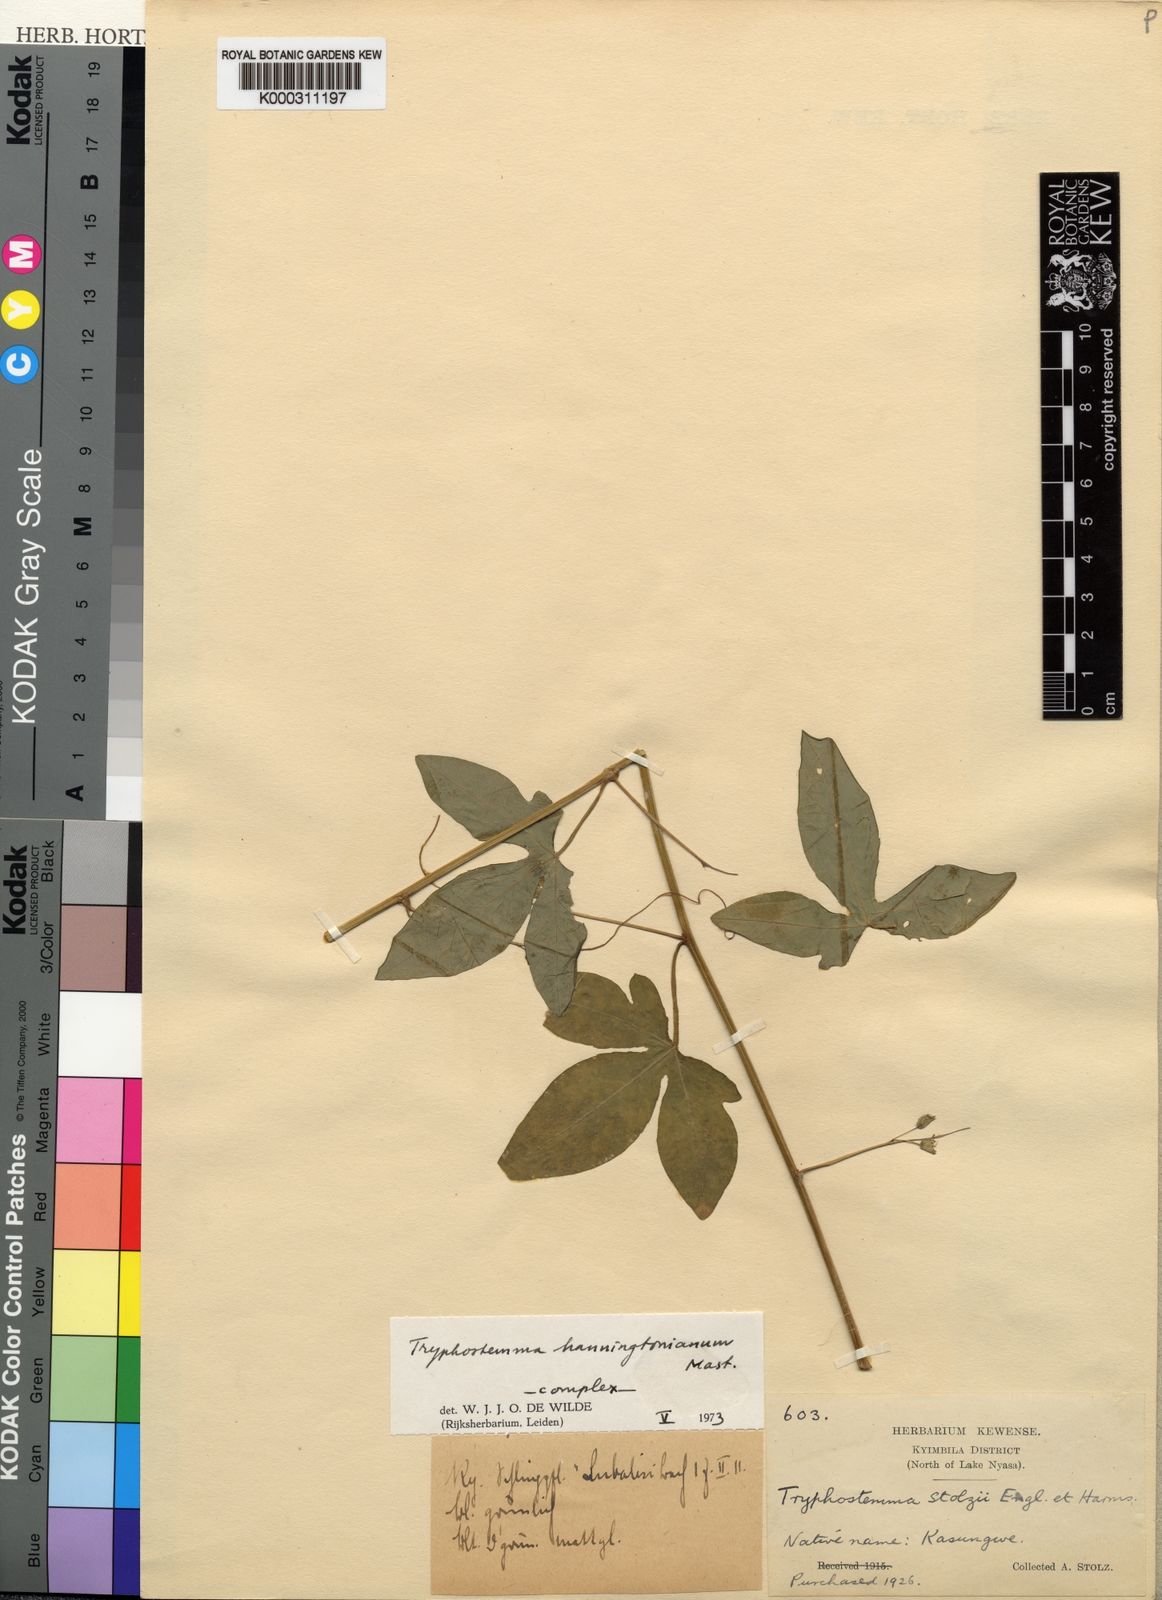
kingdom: Plantae
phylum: Tracheophyta
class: Magnoliopsida
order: Malpighiales
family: Passifloraceae
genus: Basananthe
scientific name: Basananthe hanningtoniana
